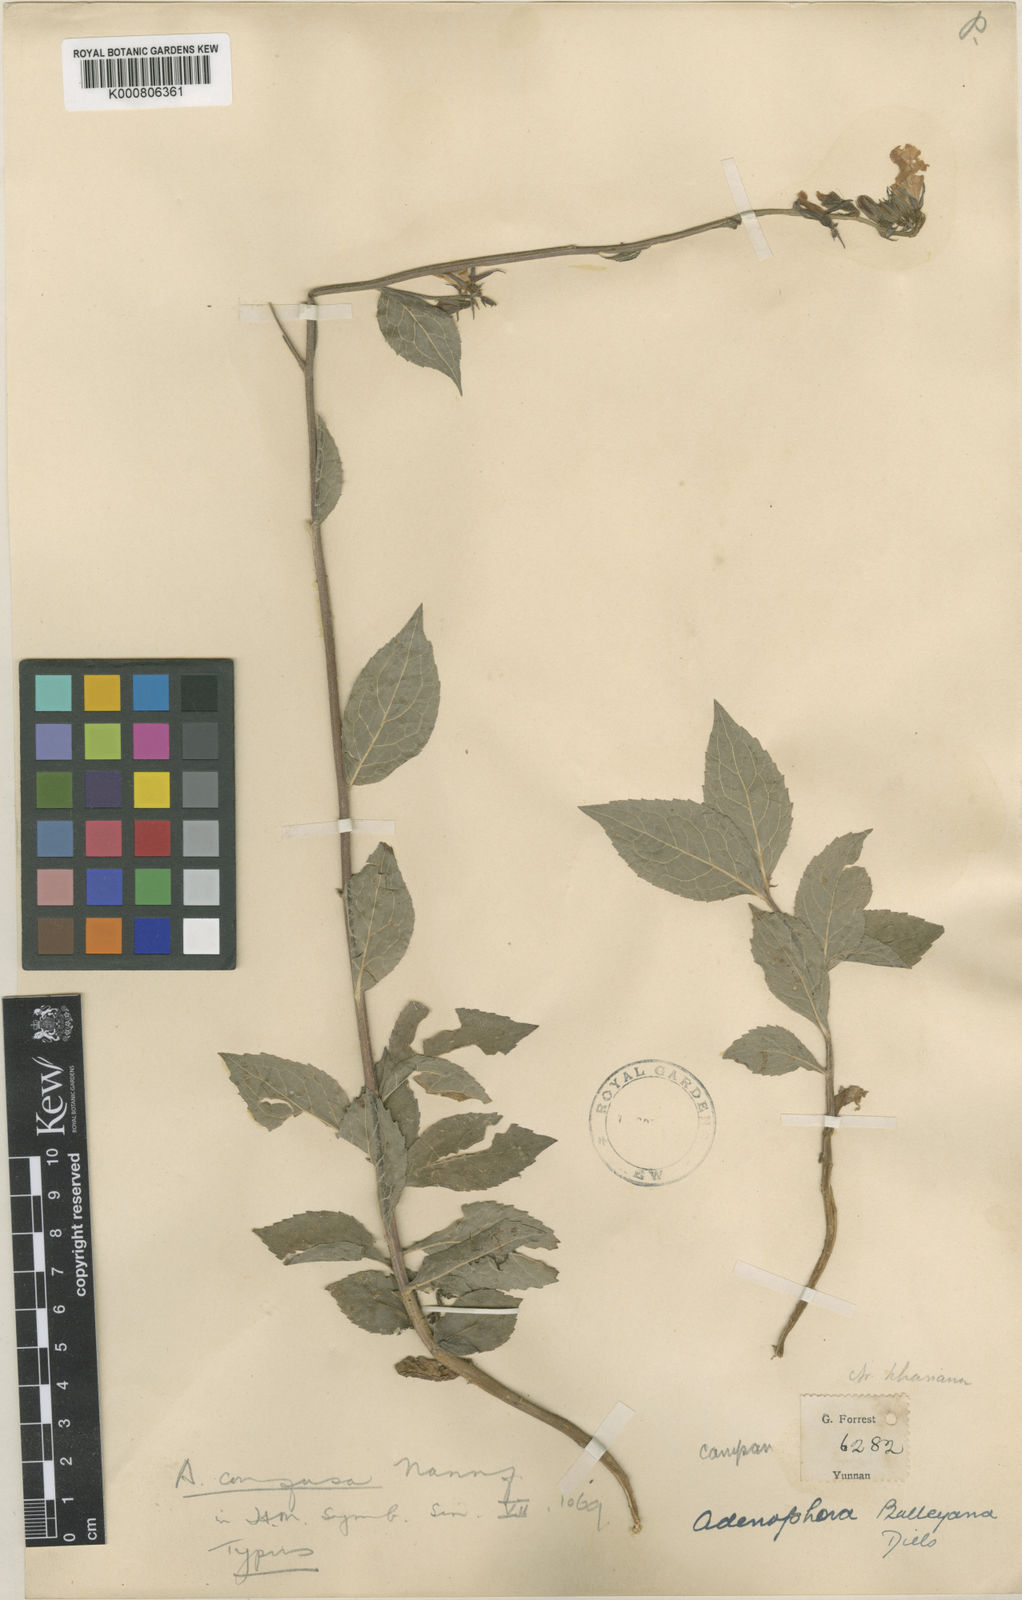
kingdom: Plantae
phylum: Tracheophyta
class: Magnoliopsida
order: Asterales
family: Campanulaceae
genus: Adenophora
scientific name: Adenophora stricta
